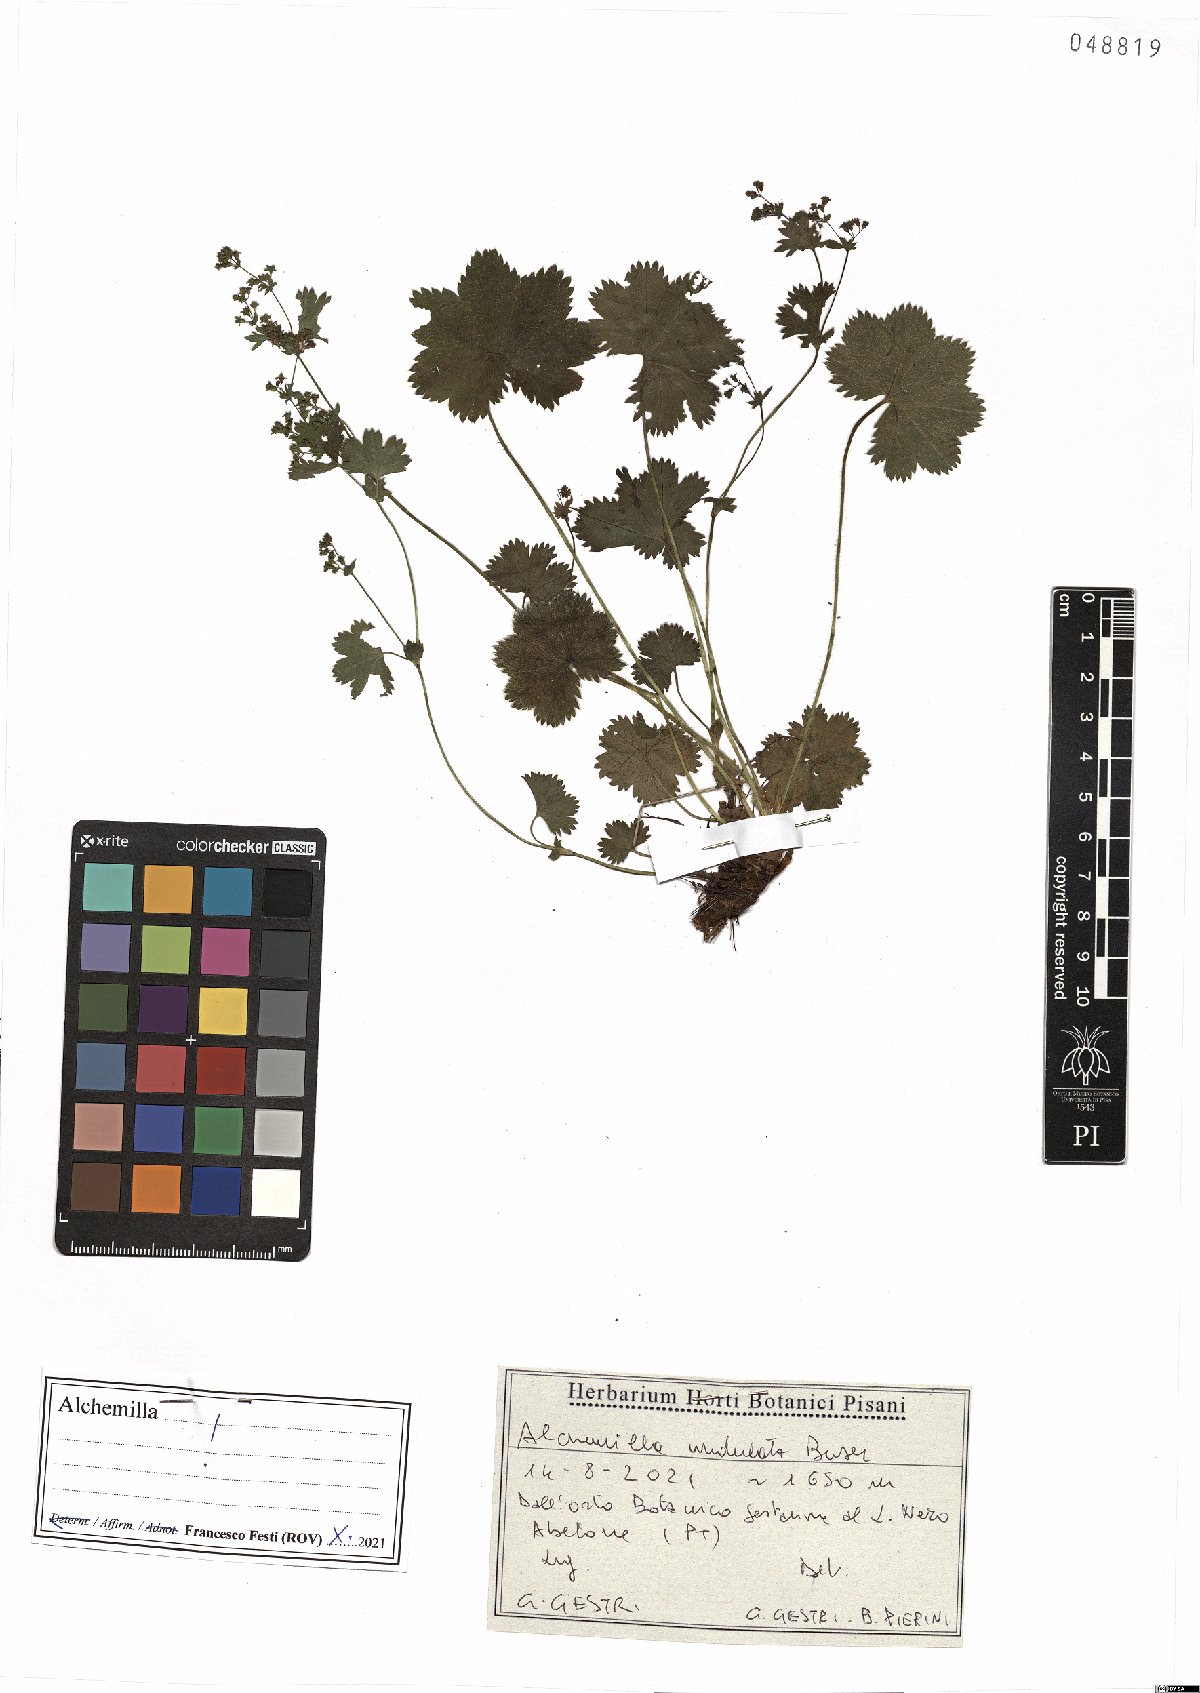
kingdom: Plantae
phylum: Tracheophyta
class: Magnoliopsida
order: Rosales
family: Rosaceae
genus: Alchemilla
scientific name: Alchemilla undulata
